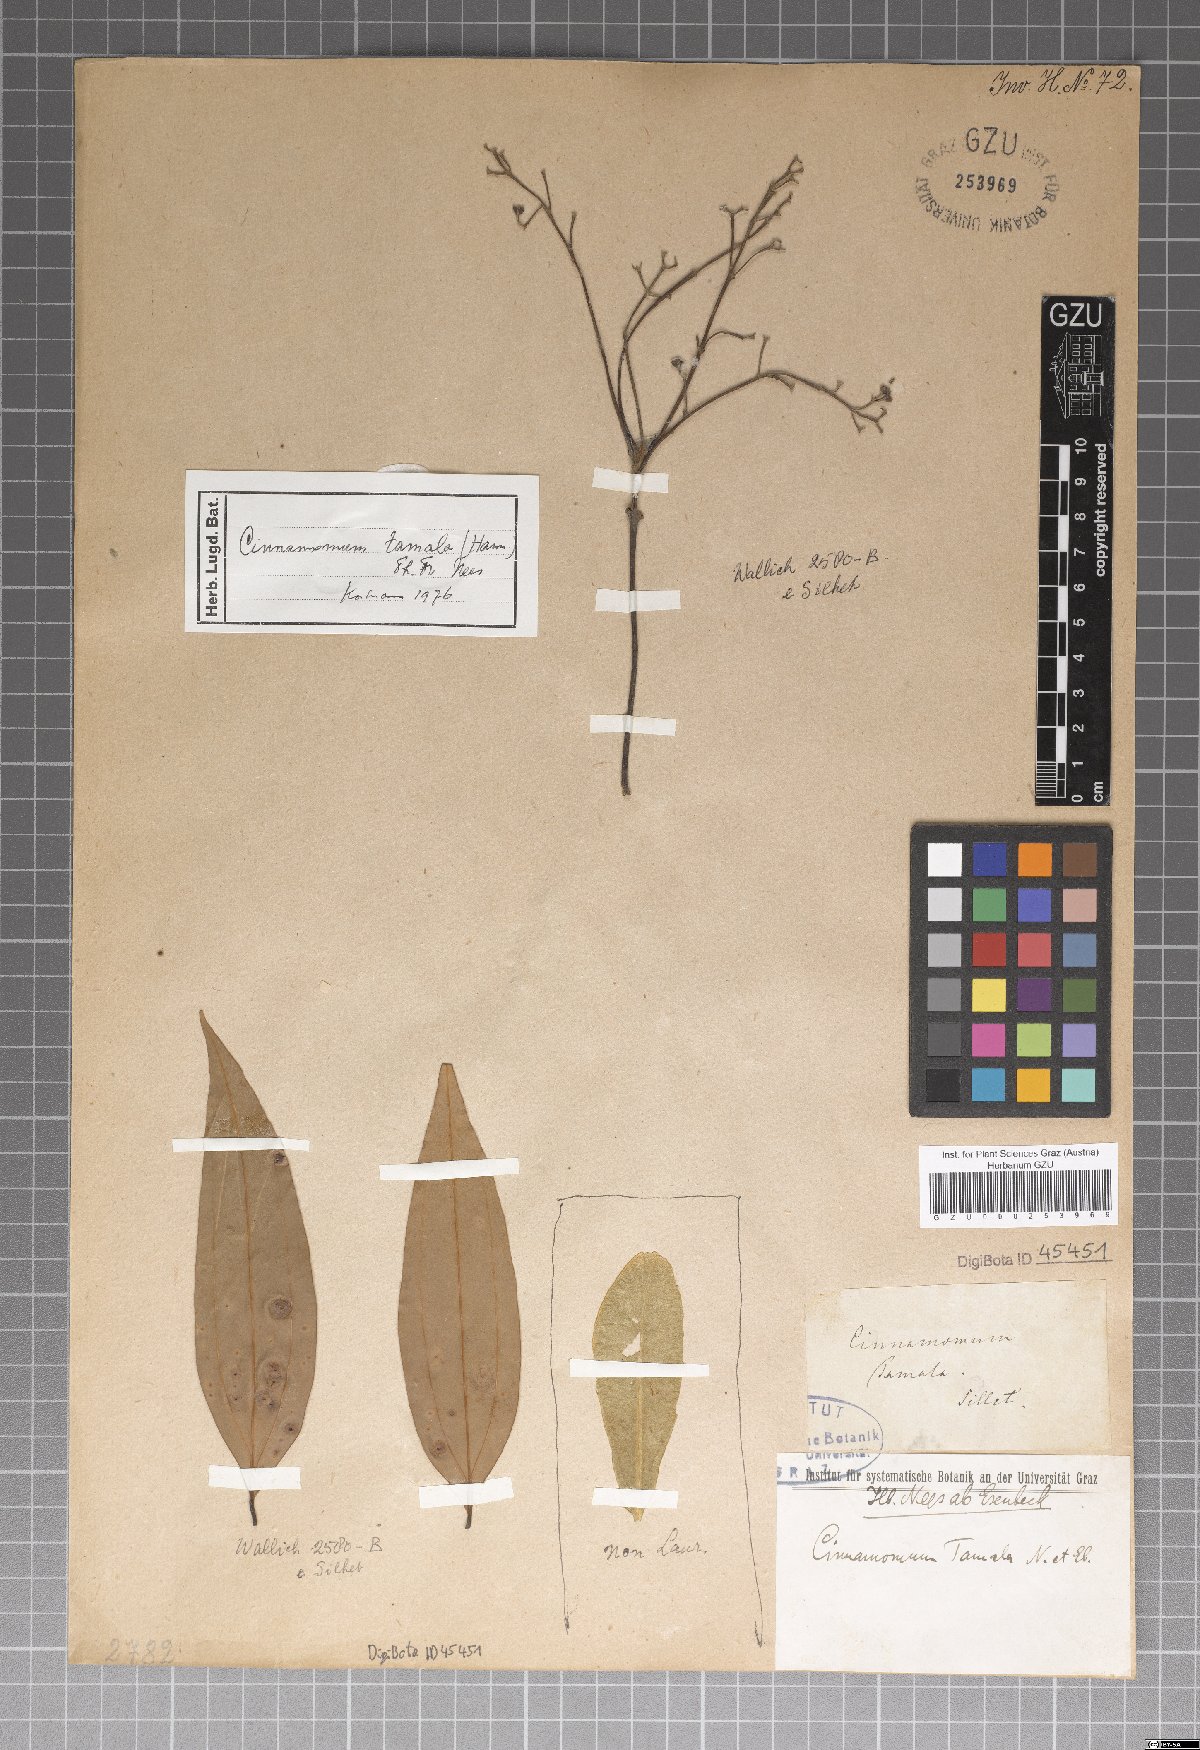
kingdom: Plantae
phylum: Tracheophyta
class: Magnoliopsida
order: Laurales
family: Lauraceae
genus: Cinnamomum
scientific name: Cinnamomum tamala
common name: Indian bay leaves
